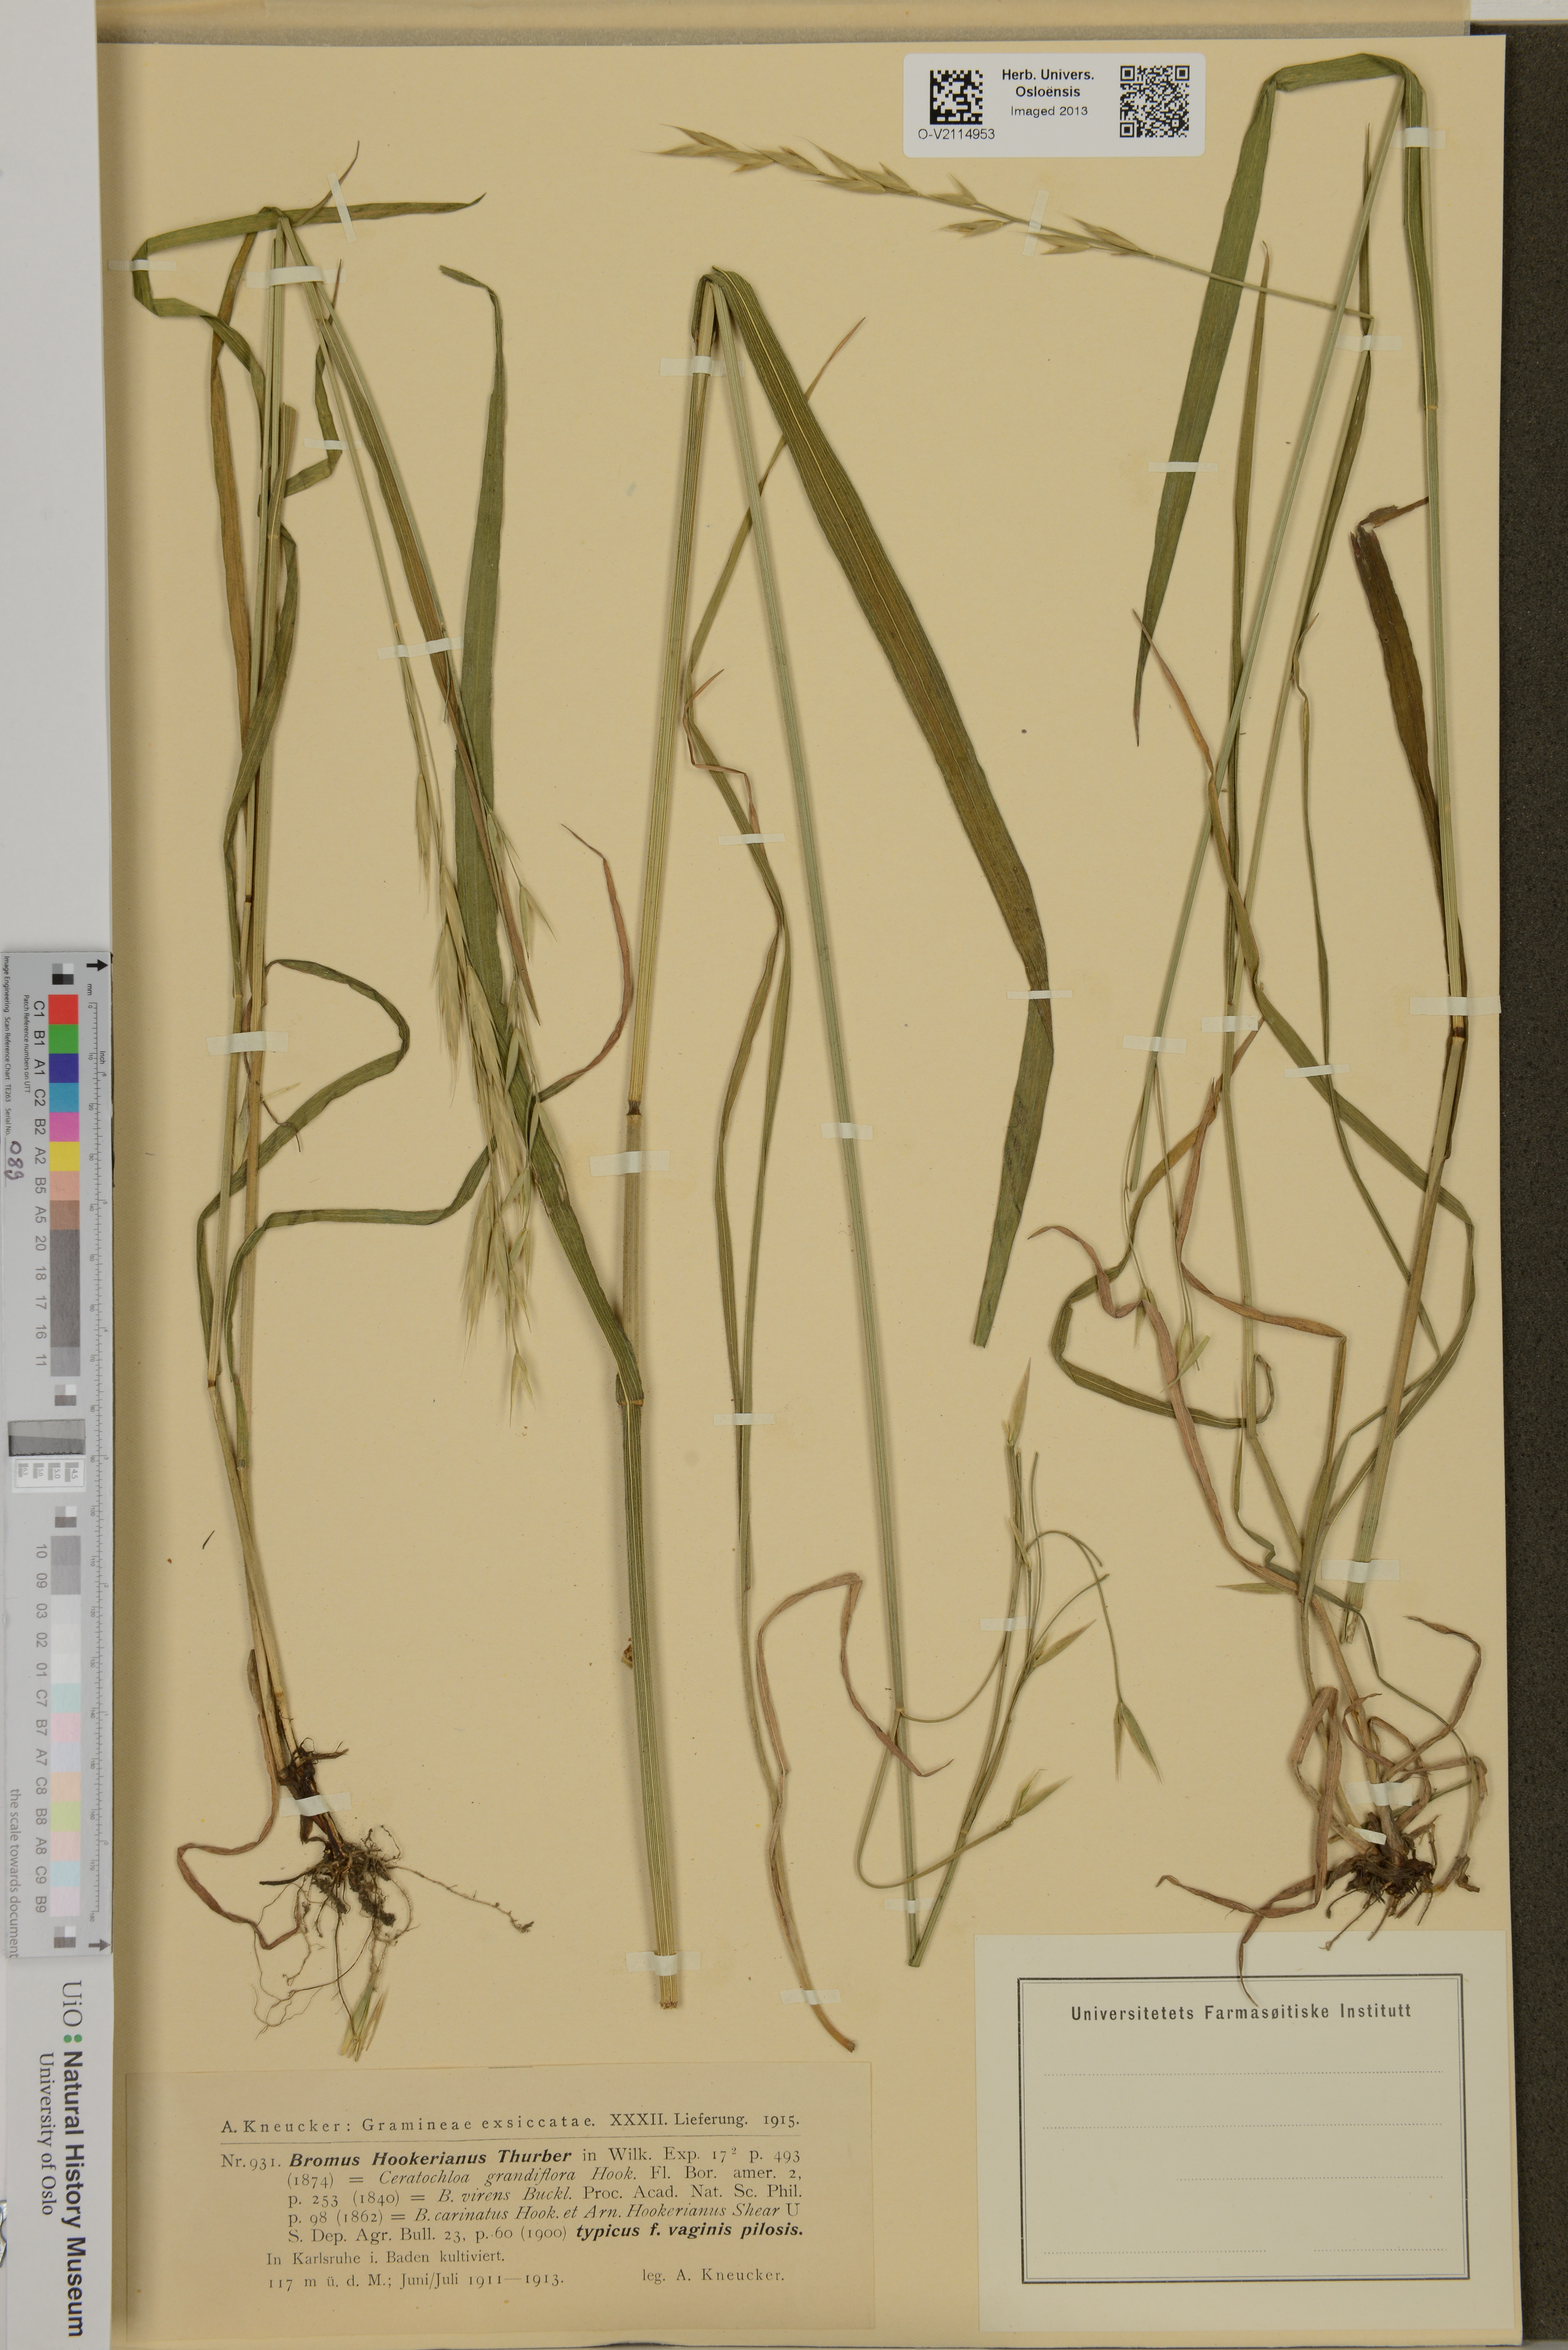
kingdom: Plantae
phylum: Tracheophyta
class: Liliopsida
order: Poales
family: Poaceae
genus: Bromus
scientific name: Bromus carinatus
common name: Mountain brome
